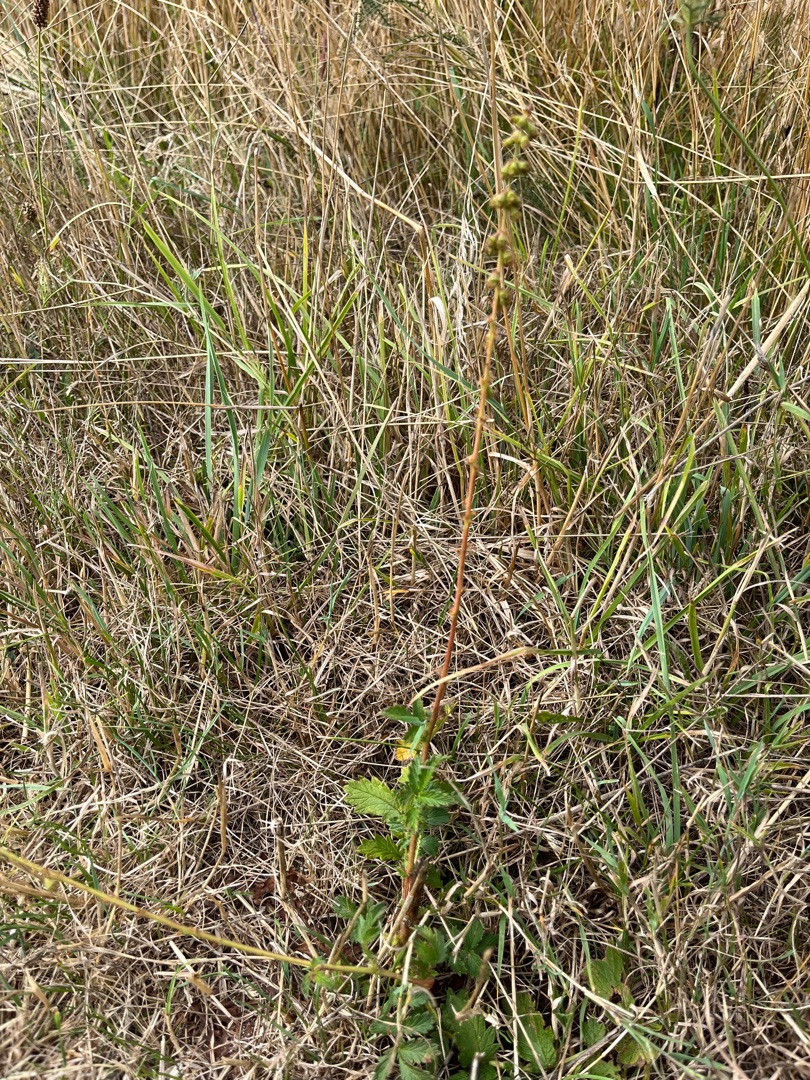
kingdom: Plantae
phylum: Tracheophyta
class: Magnoliopsida
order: Rosales
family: Rosaceae
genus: Agrimonia
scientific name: Agrimonia eupatoria
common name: Almindelig agermåne
